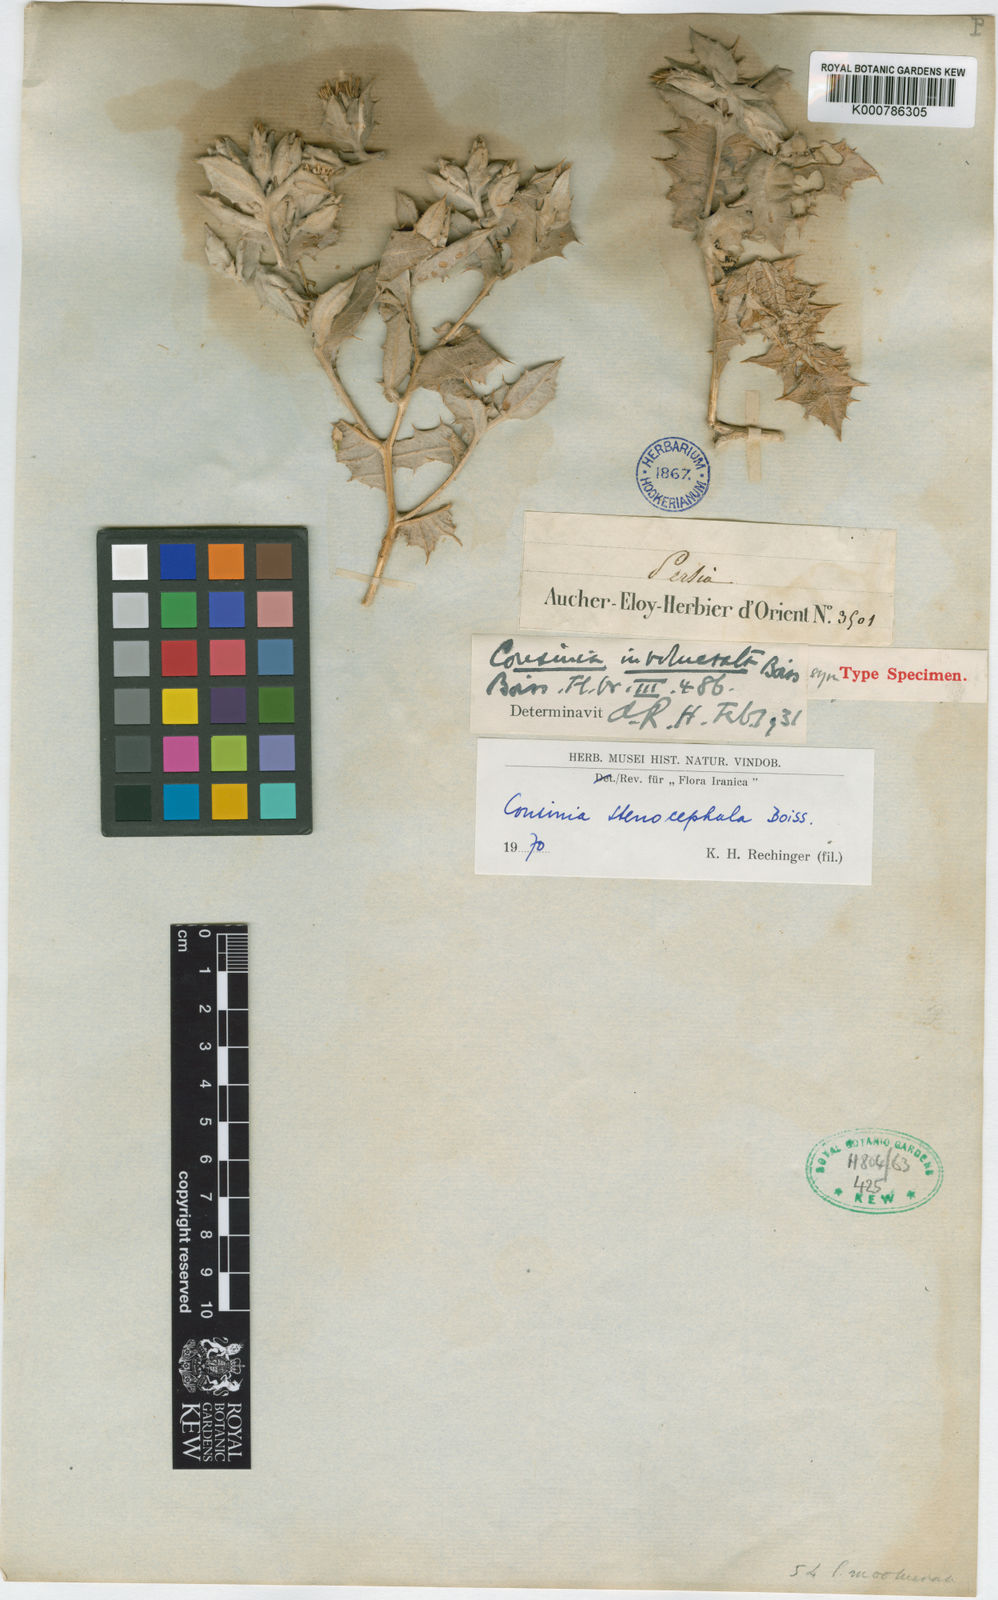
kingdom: Plantae
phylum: Tracheophyta
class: Magnoliopsida
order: Asterales
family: Asteraceae
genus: Cousinia
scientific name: Cousinia stenocephala
